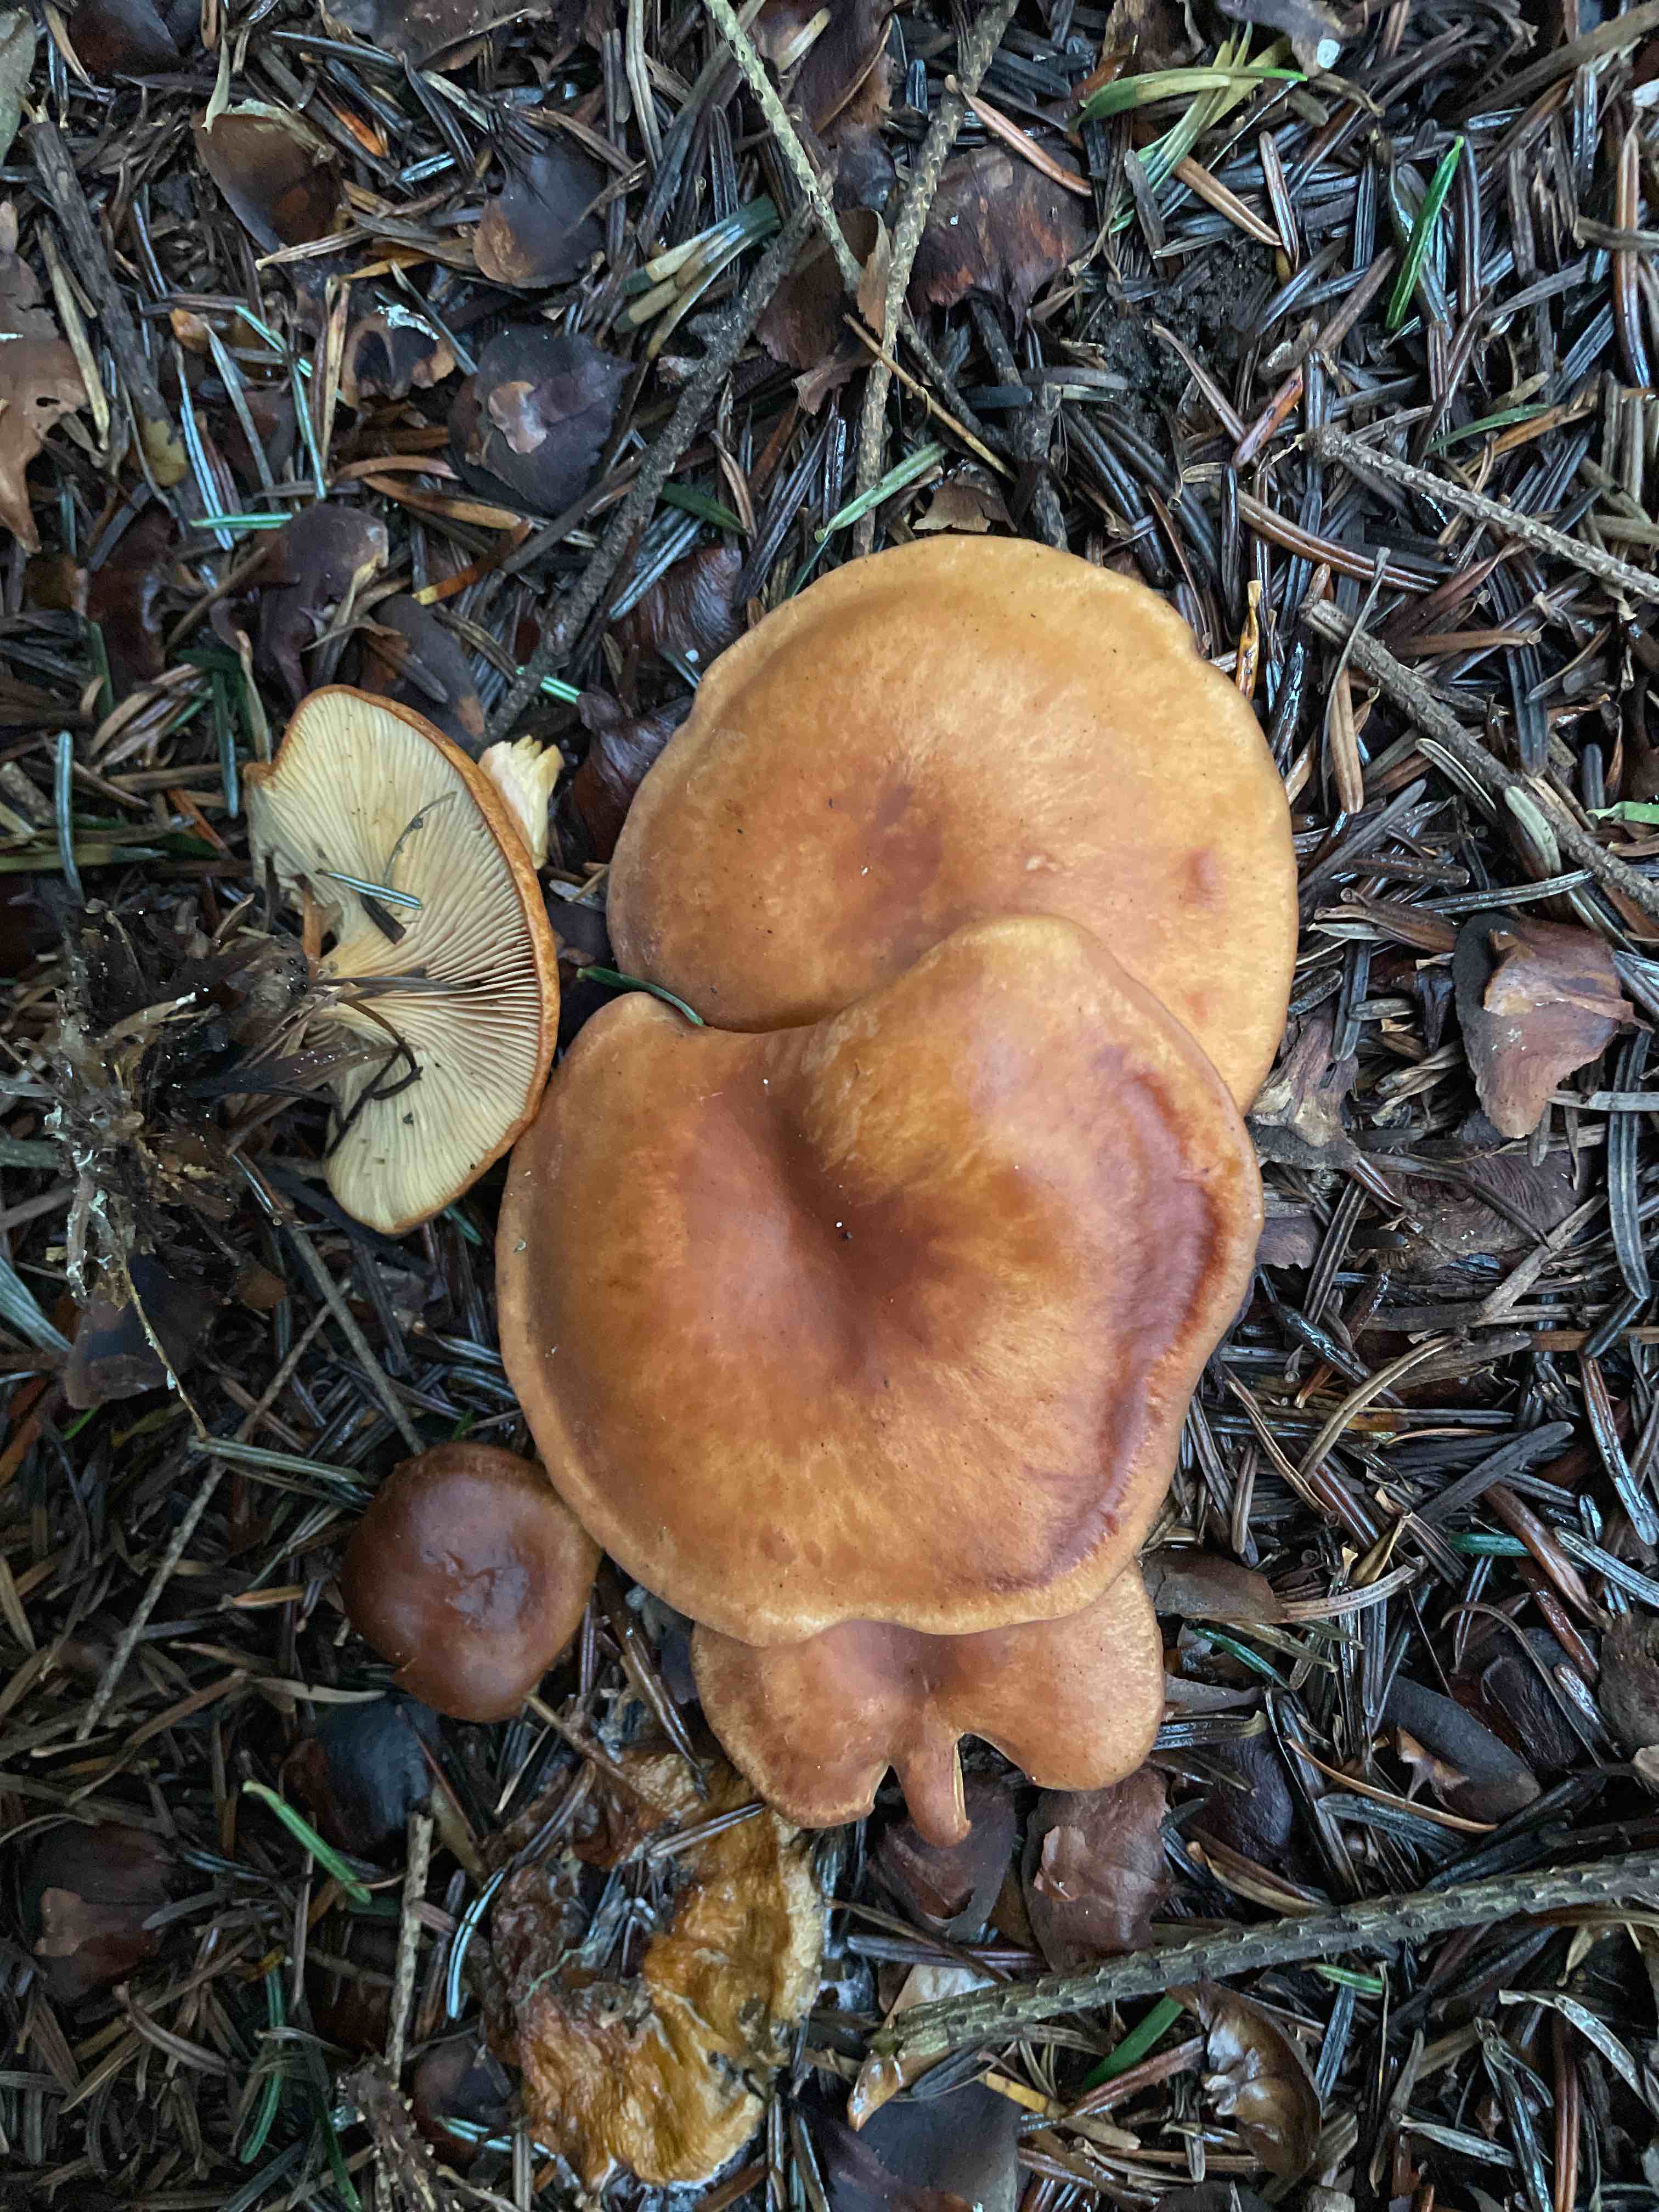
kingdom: Fungi
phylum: Basidiomycota
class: Agaricomycetes
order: Agaricales
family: Tricholomataceae
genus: Paralepista
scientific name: Paralepista flaccida
